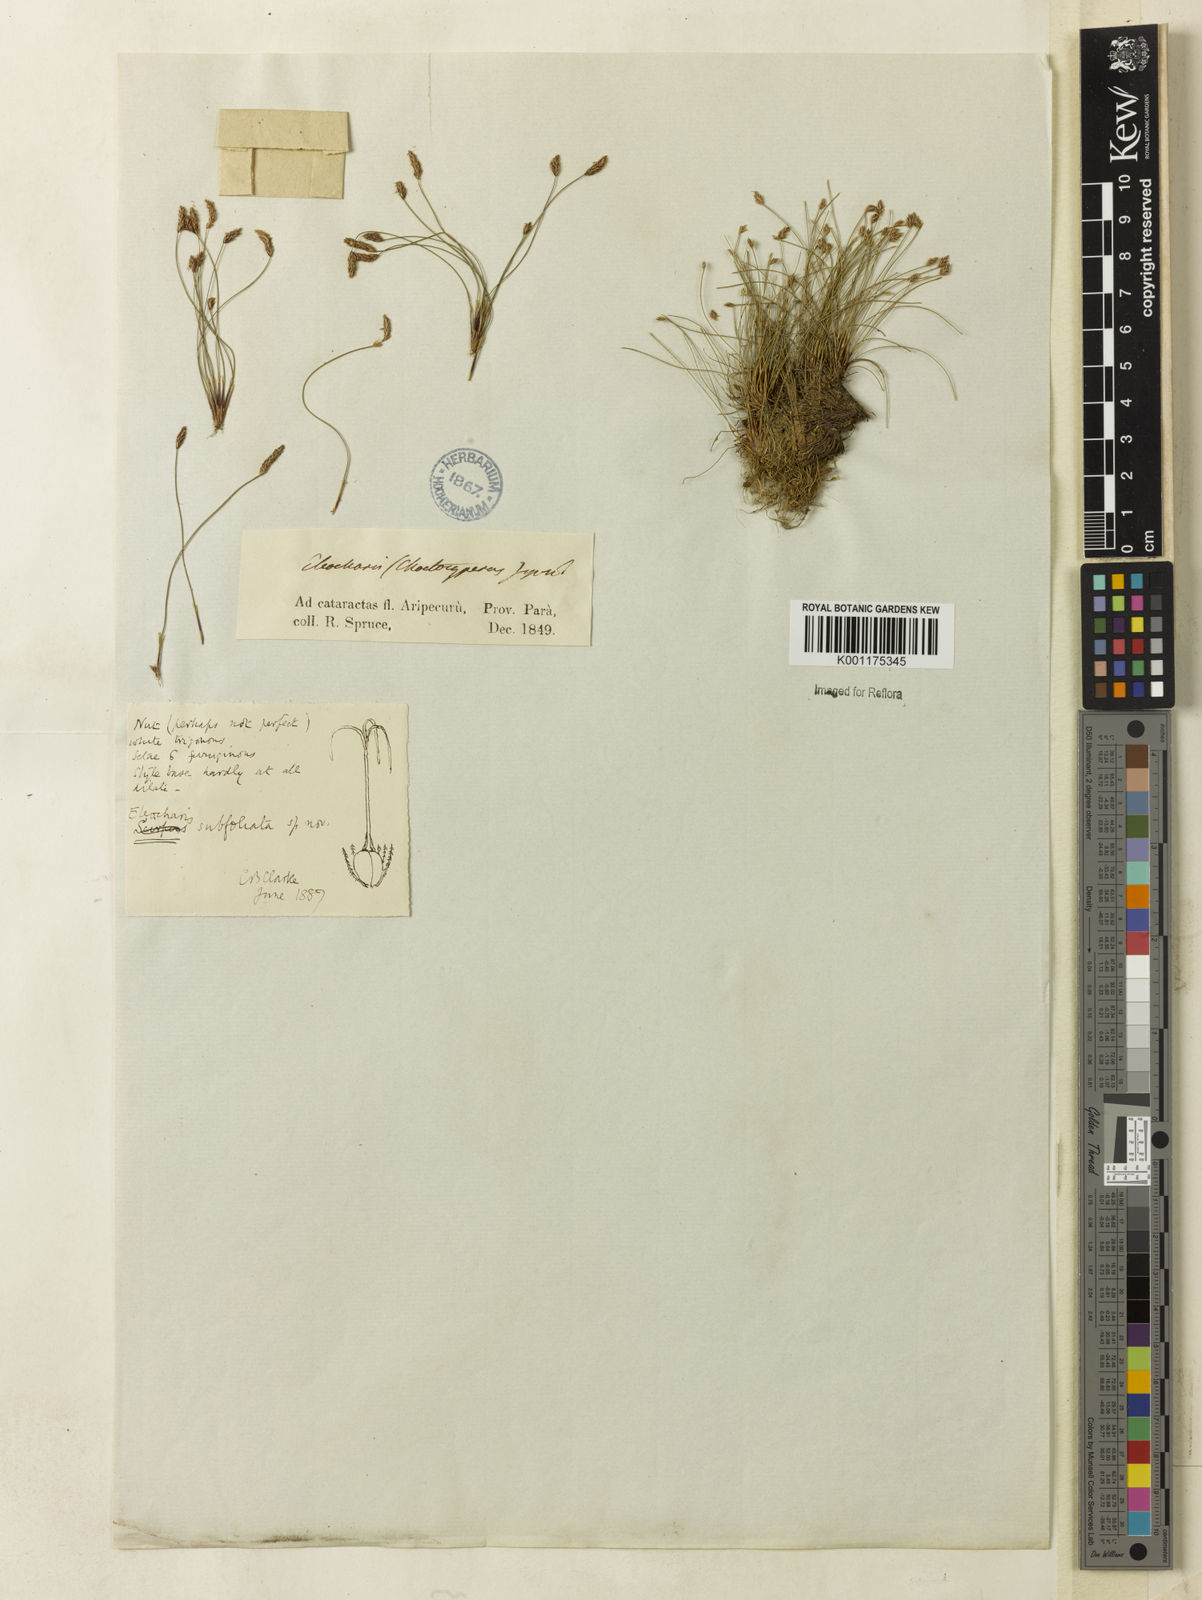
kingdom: Plantae
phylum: Tracheophyta
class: Liliopsida
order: Poales
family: Cyperaceae
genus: Eleocharis
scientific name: Eleocharis minima
